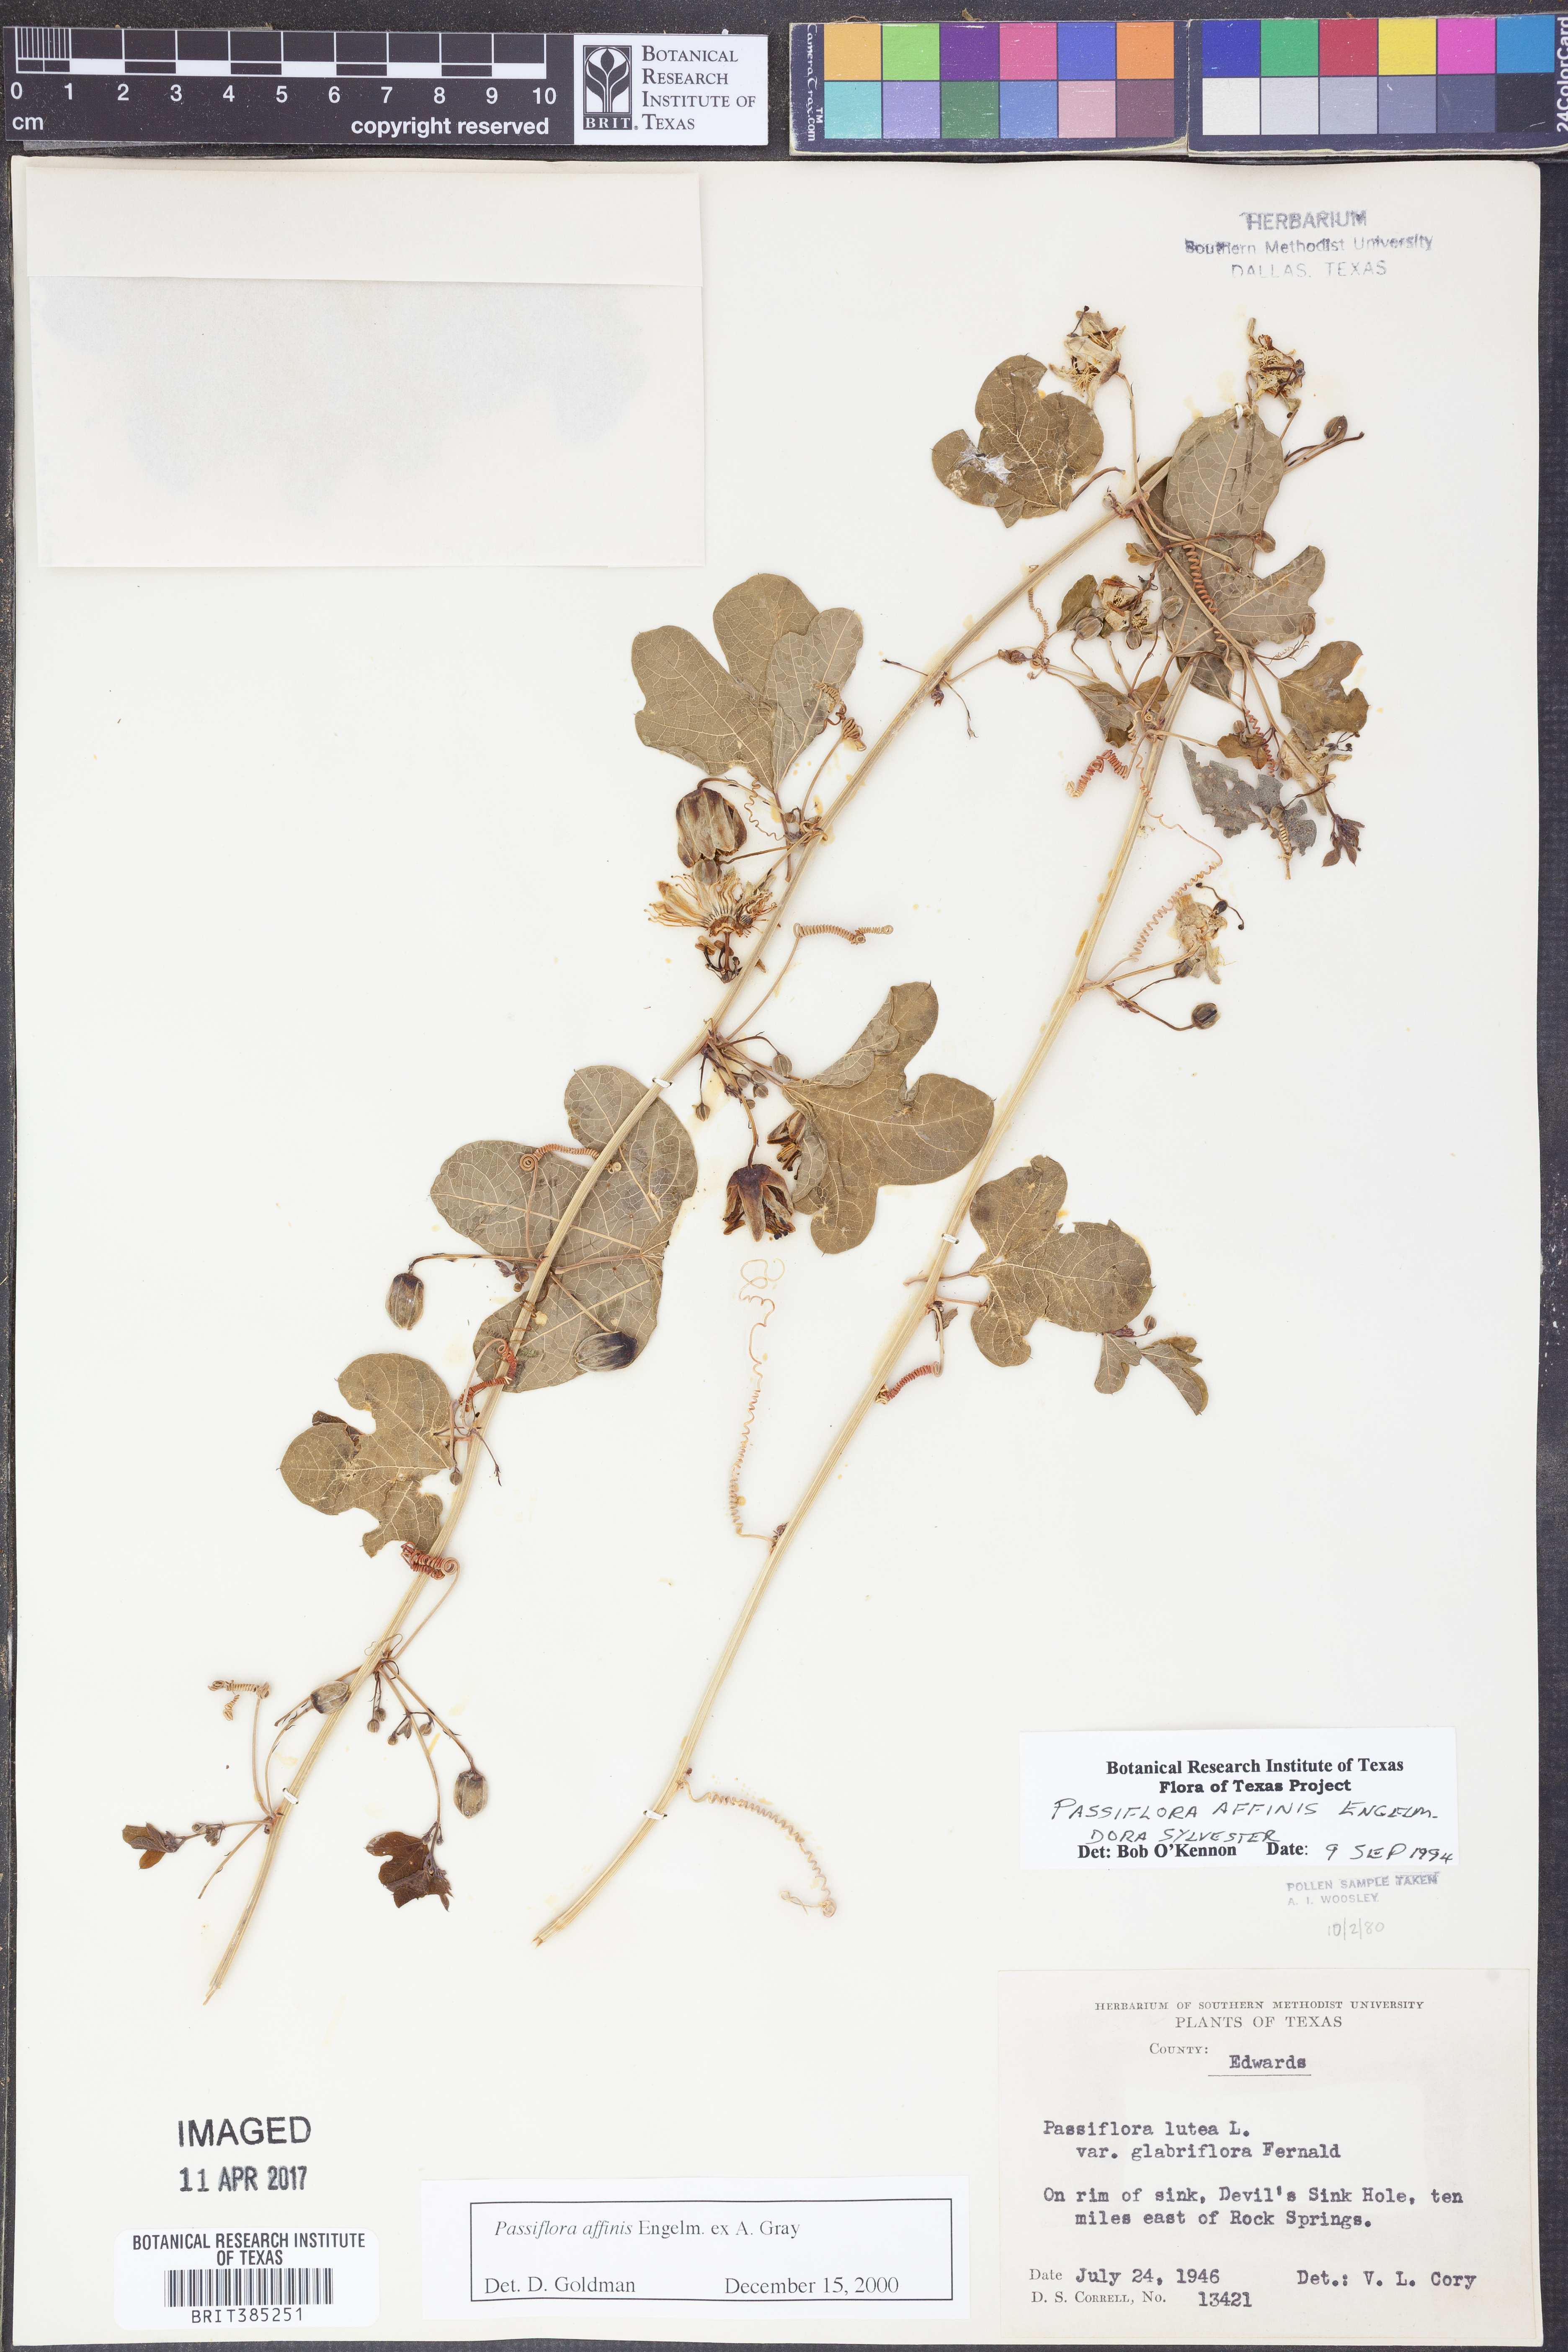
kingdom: Plantae
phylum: Tracheophyta
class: Magnoliopsida
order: Malpighiales
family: Passifloraceae
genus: Passiflora
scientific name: Passiflora affinis
